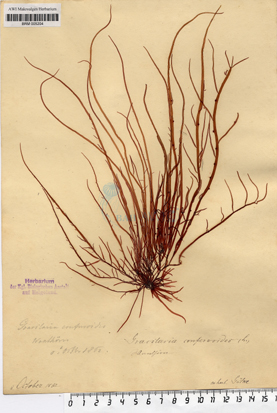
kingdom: Plantae
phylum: Rhodophyta
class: Florideophyceae
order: Gracilariales
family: Gracilariaceae
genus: Gracilaria
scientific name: Gracilaria gracilis
